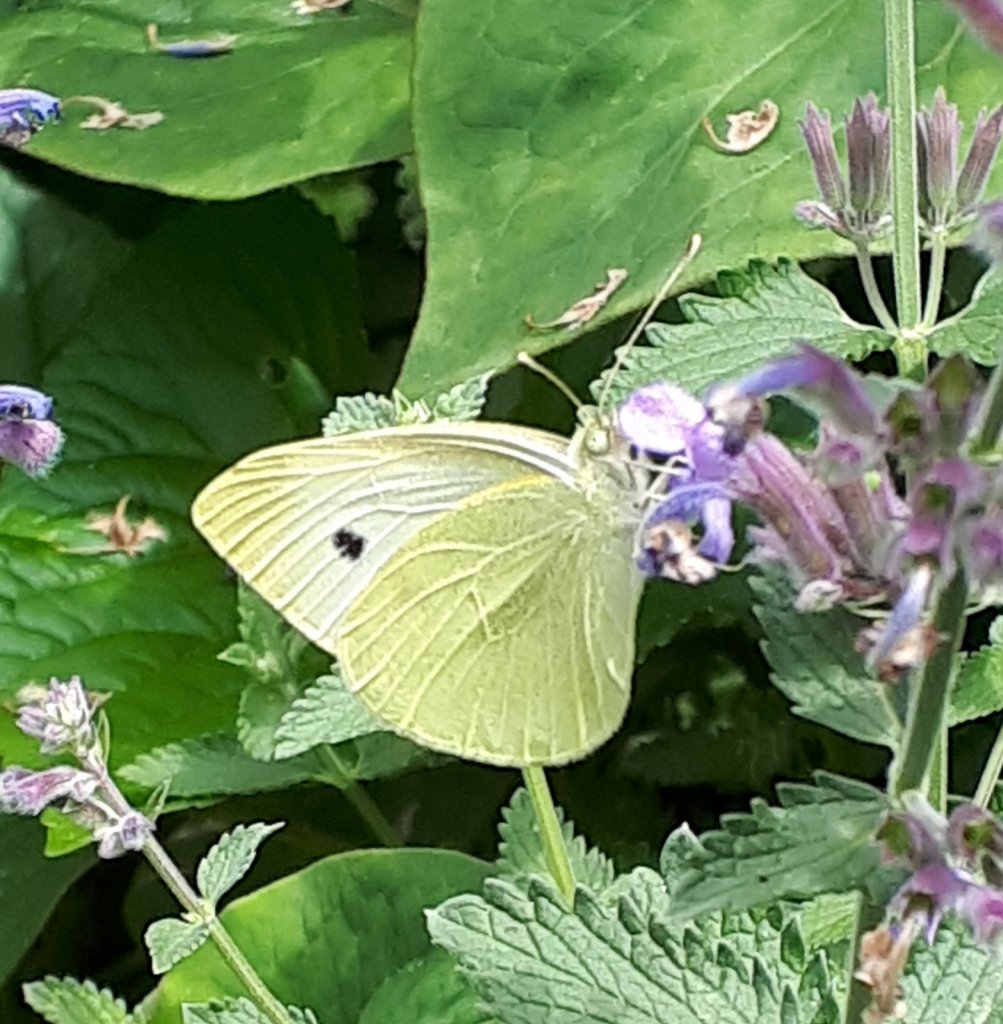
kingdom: Animalia
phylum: Arthropoda
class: Insecta
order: Lepidoptera
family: Pieridae
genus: Pieris
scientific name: Pieris rapae
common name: Cabbage White
